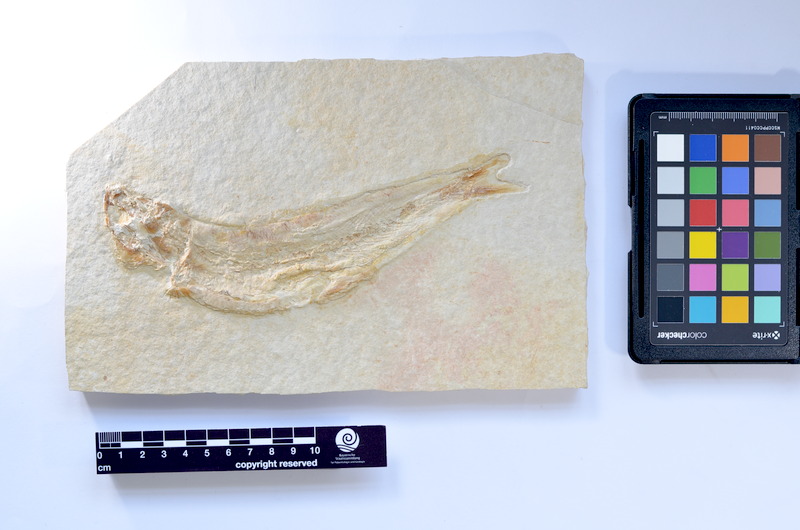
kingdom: Animalia
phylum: Chordata
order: Elopiformes
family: Anaethalionidae
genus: Anaethalion
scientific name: Anaethalion knorri
